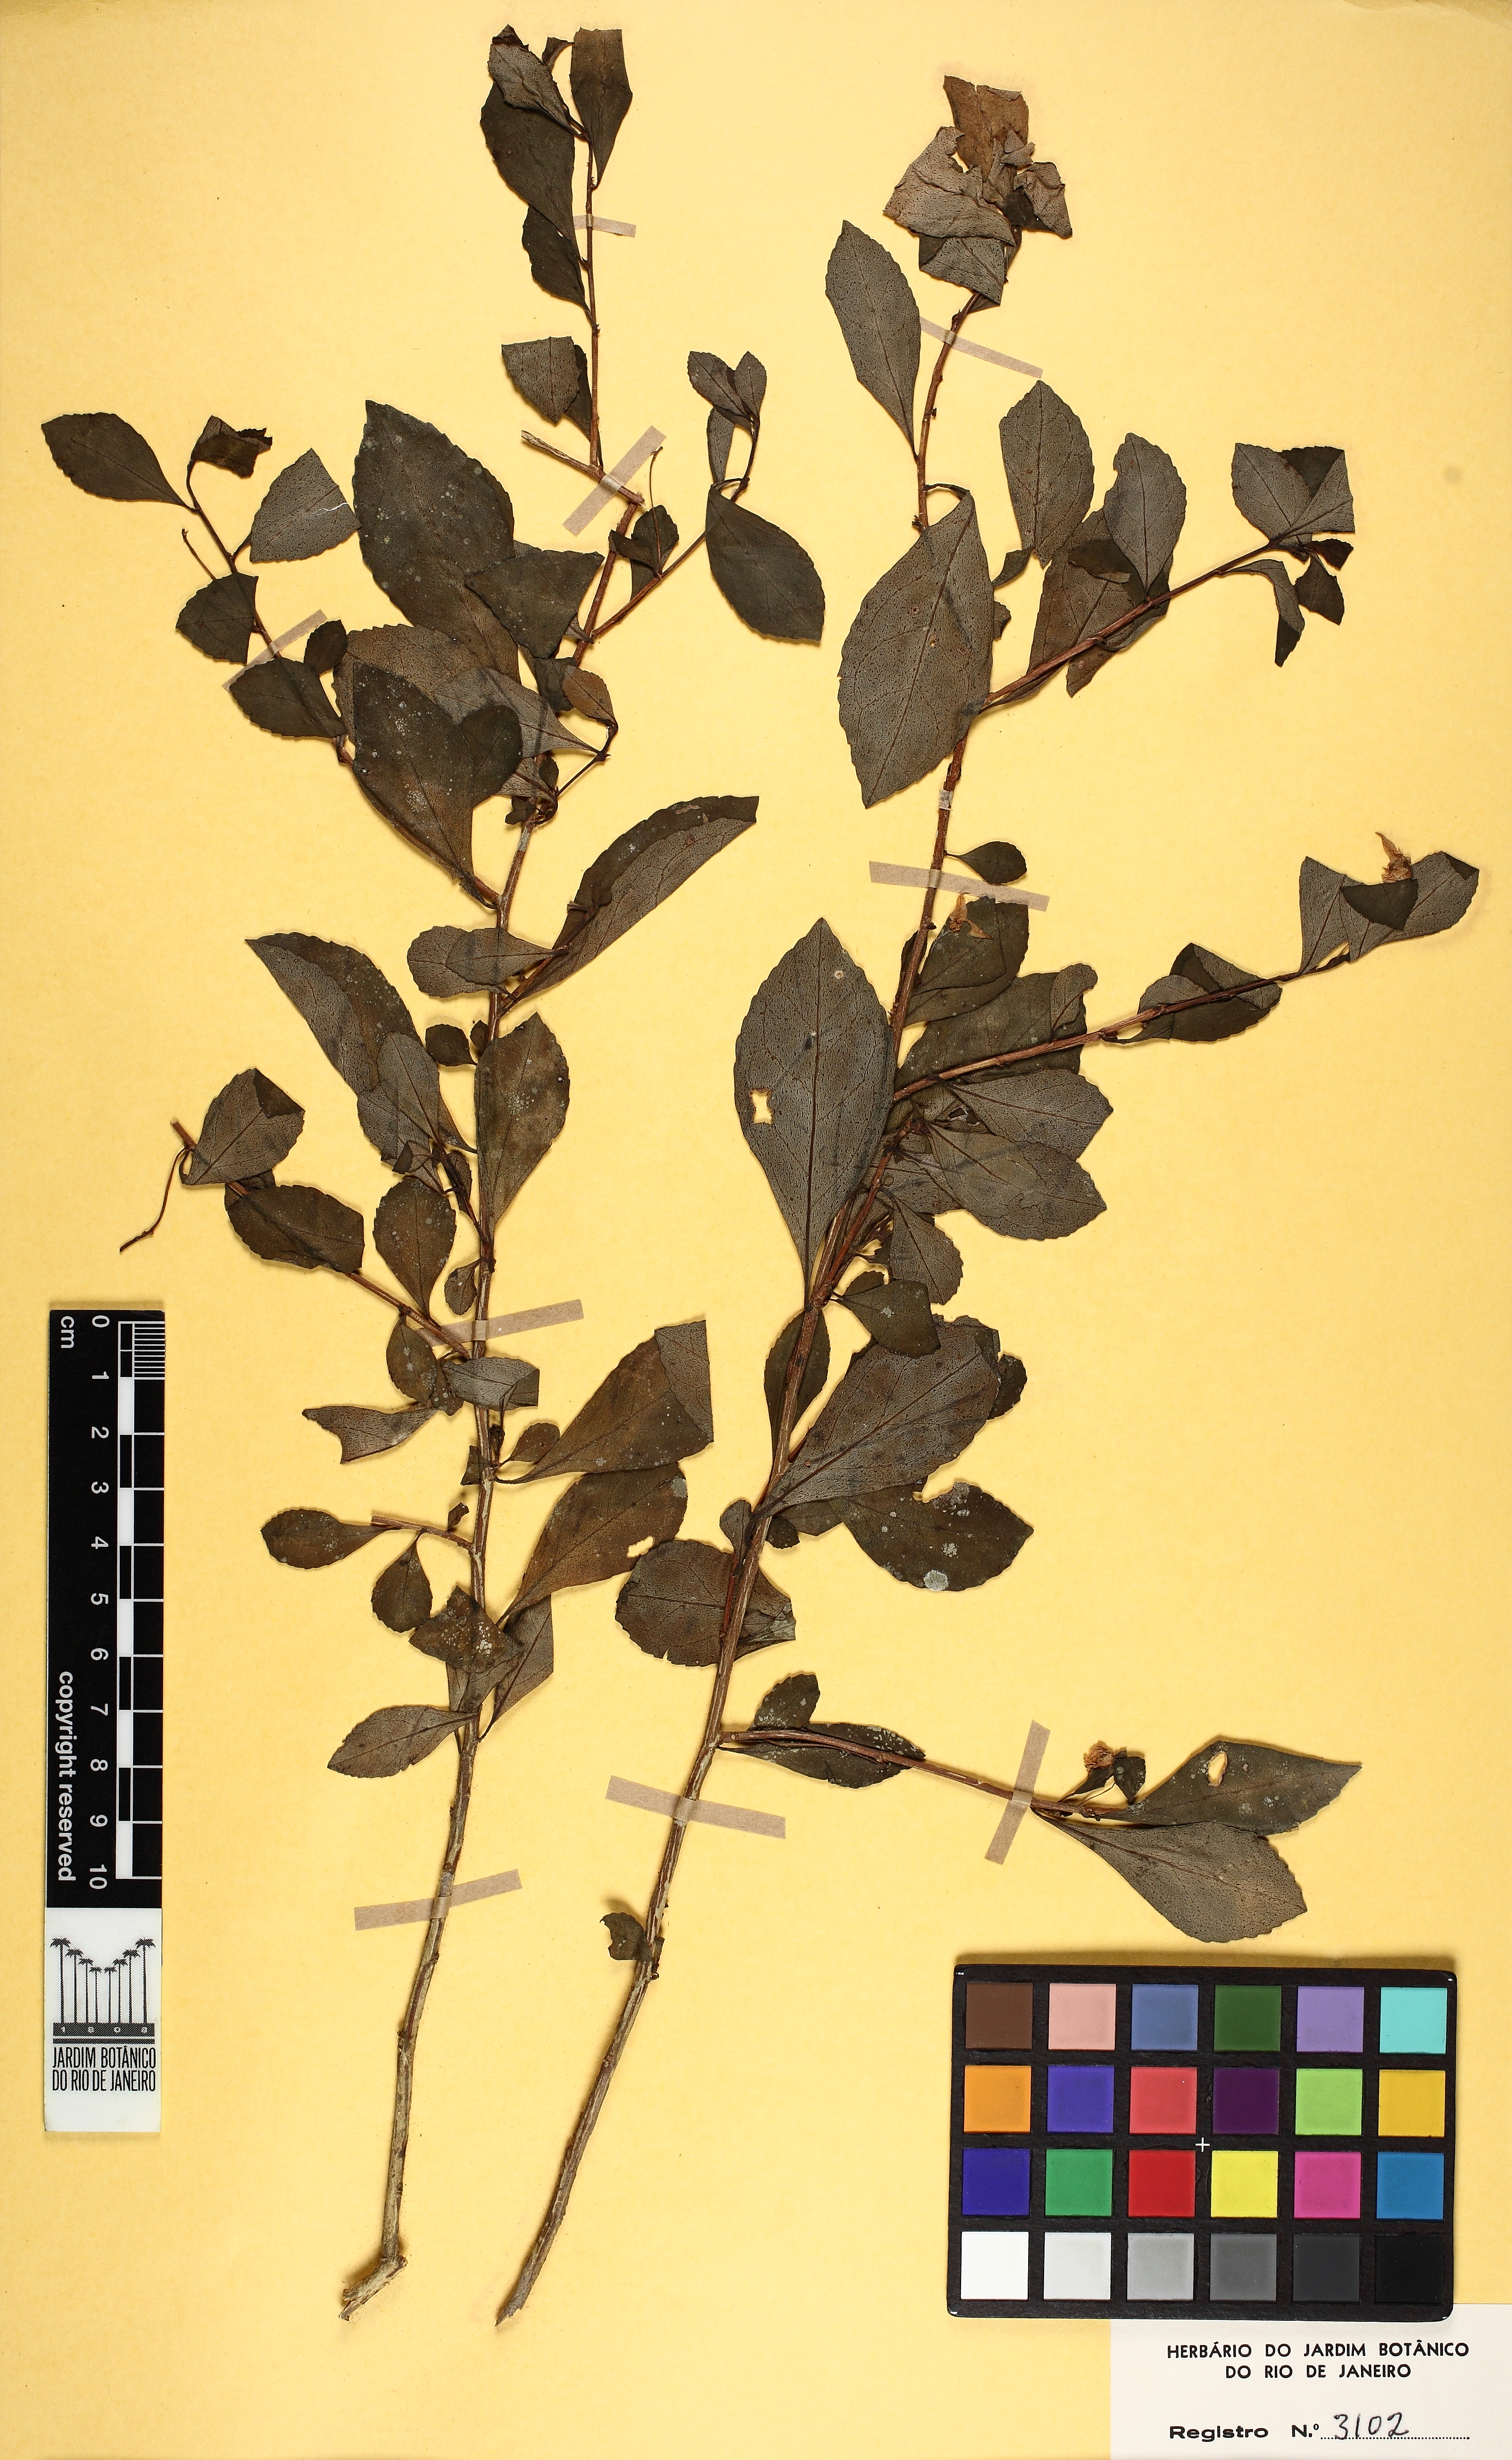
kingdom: Plantae
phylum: Tracheophyta
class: Magnoliopsida
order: Malpighiales
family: Violaceae
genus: Schweiggeria
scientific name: Schweiggeria fruticosa
